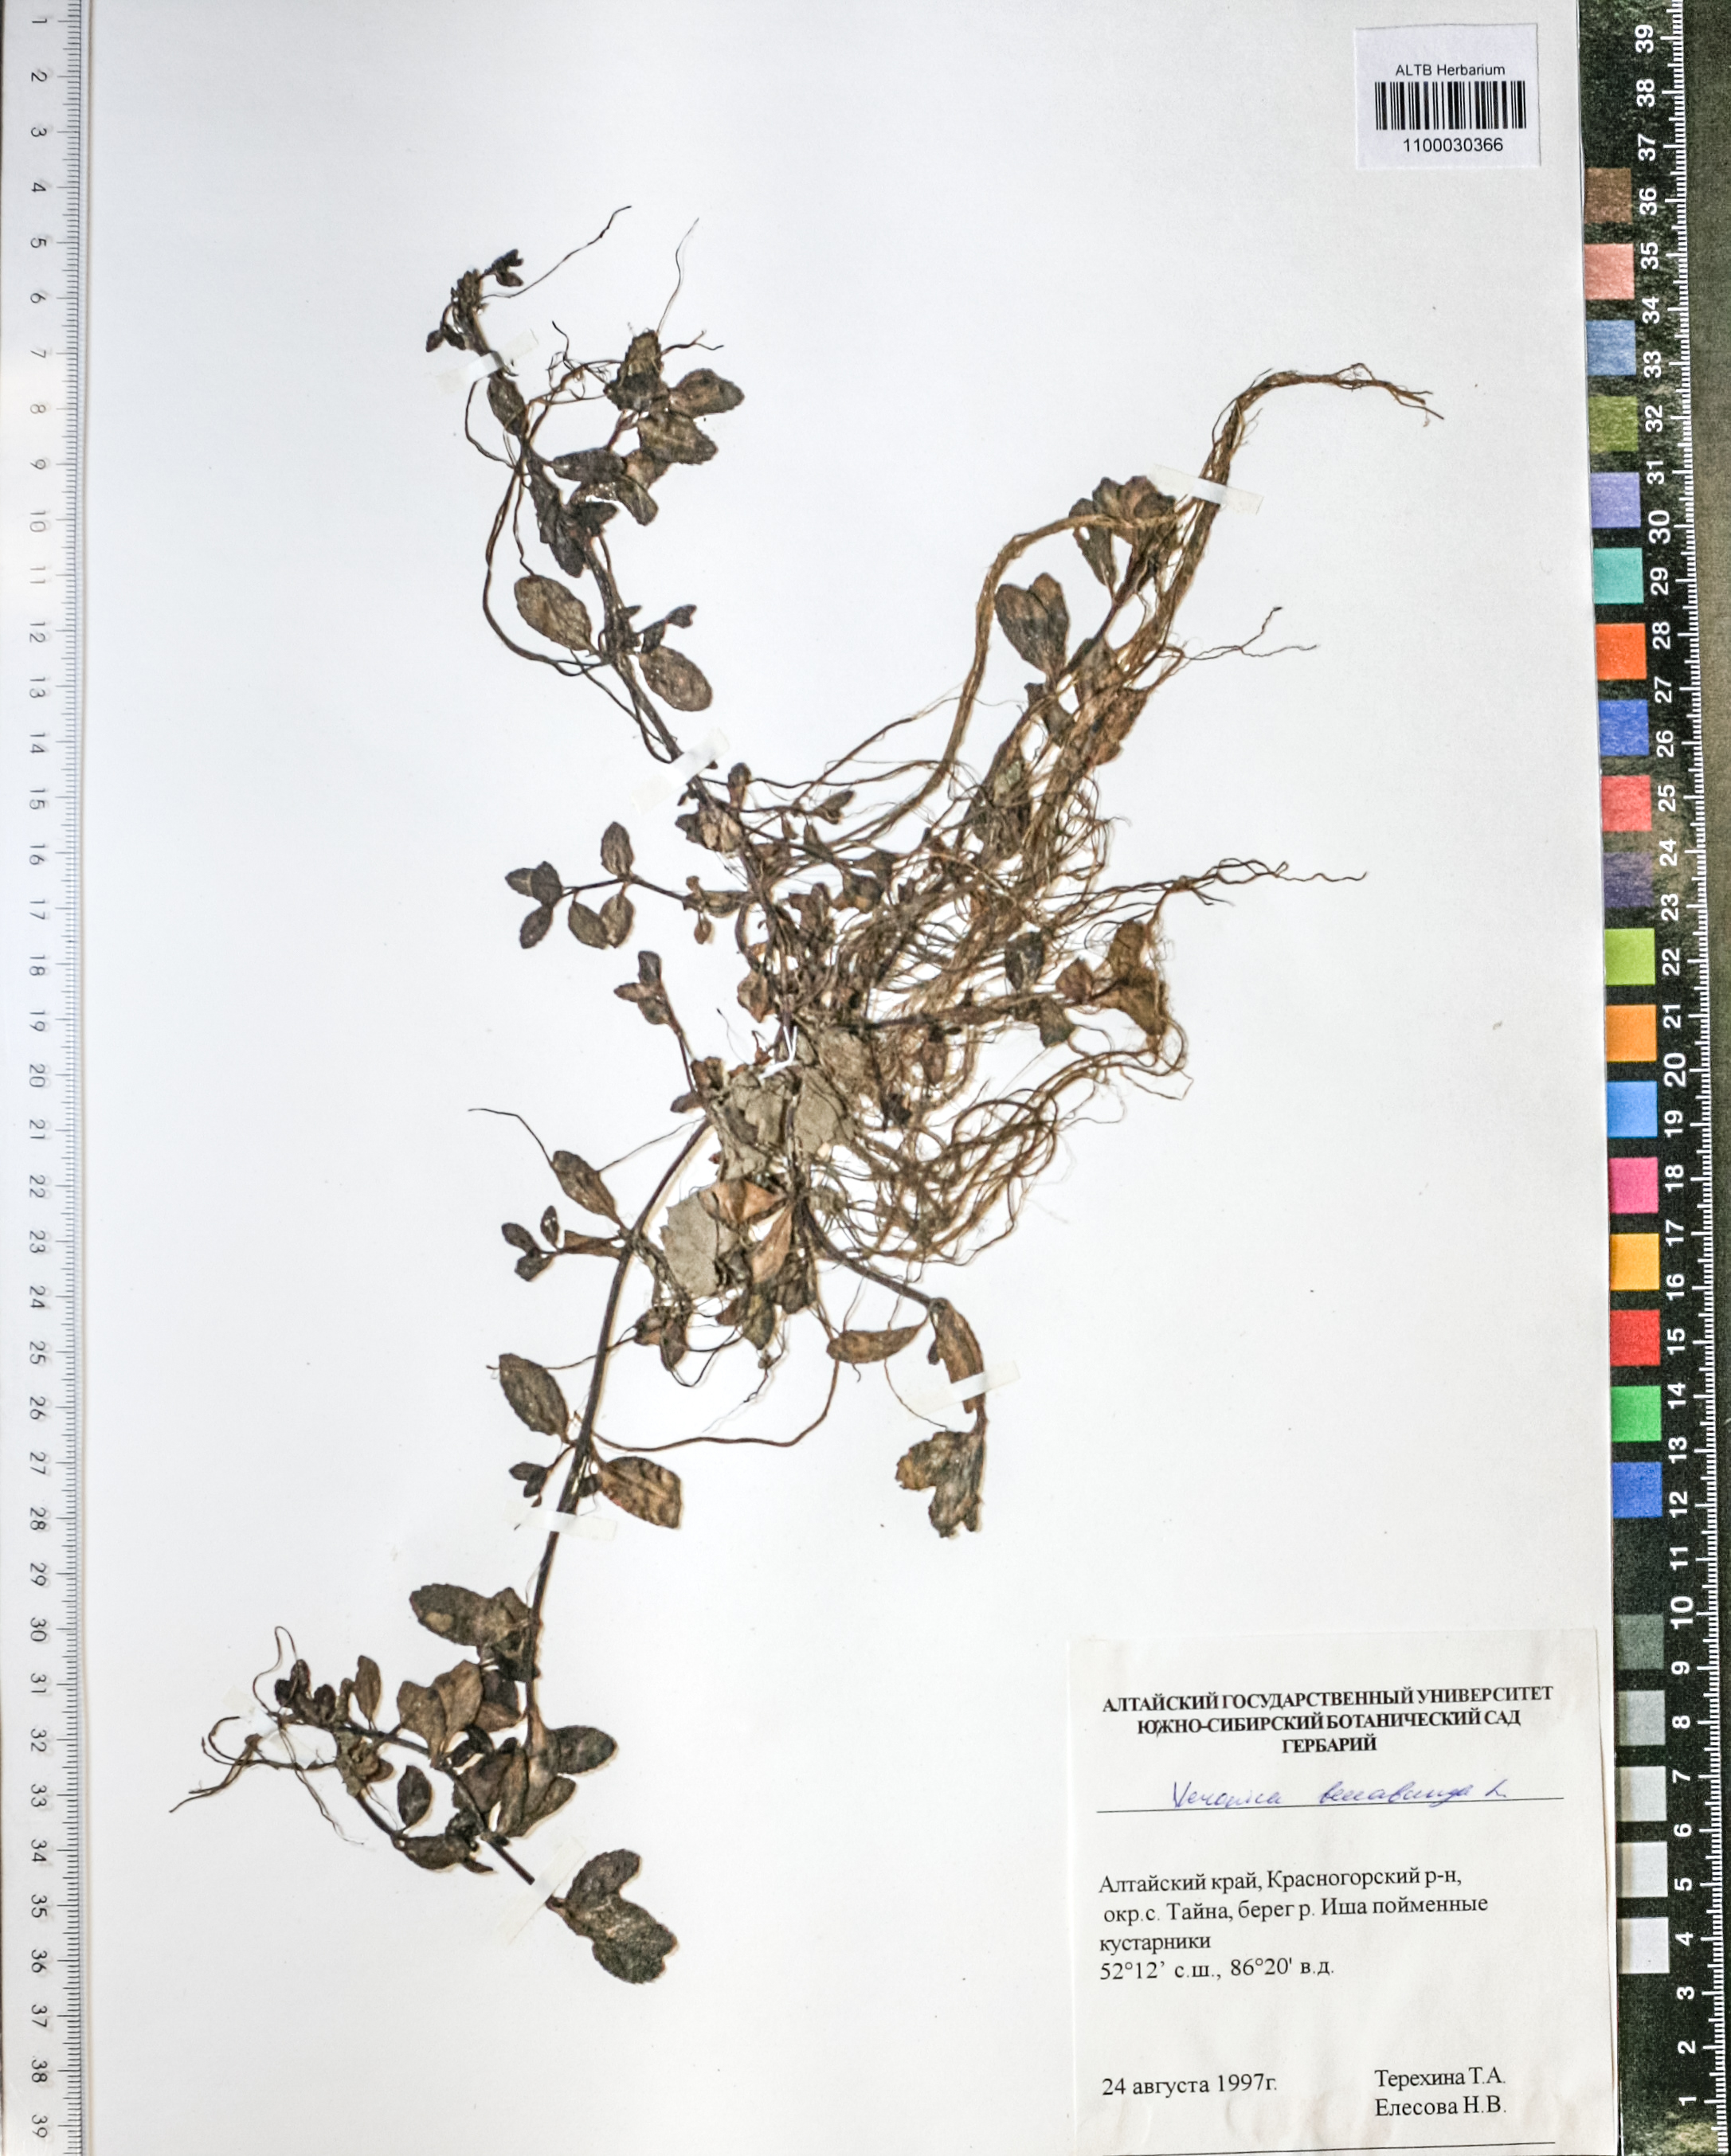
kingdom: Plantae
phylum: Tracheophyta
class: Magnoliopsida
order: Lamiales
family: Plantaginaceae
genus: Veronica
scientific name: Veronica beccabunga
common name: Brooklime
